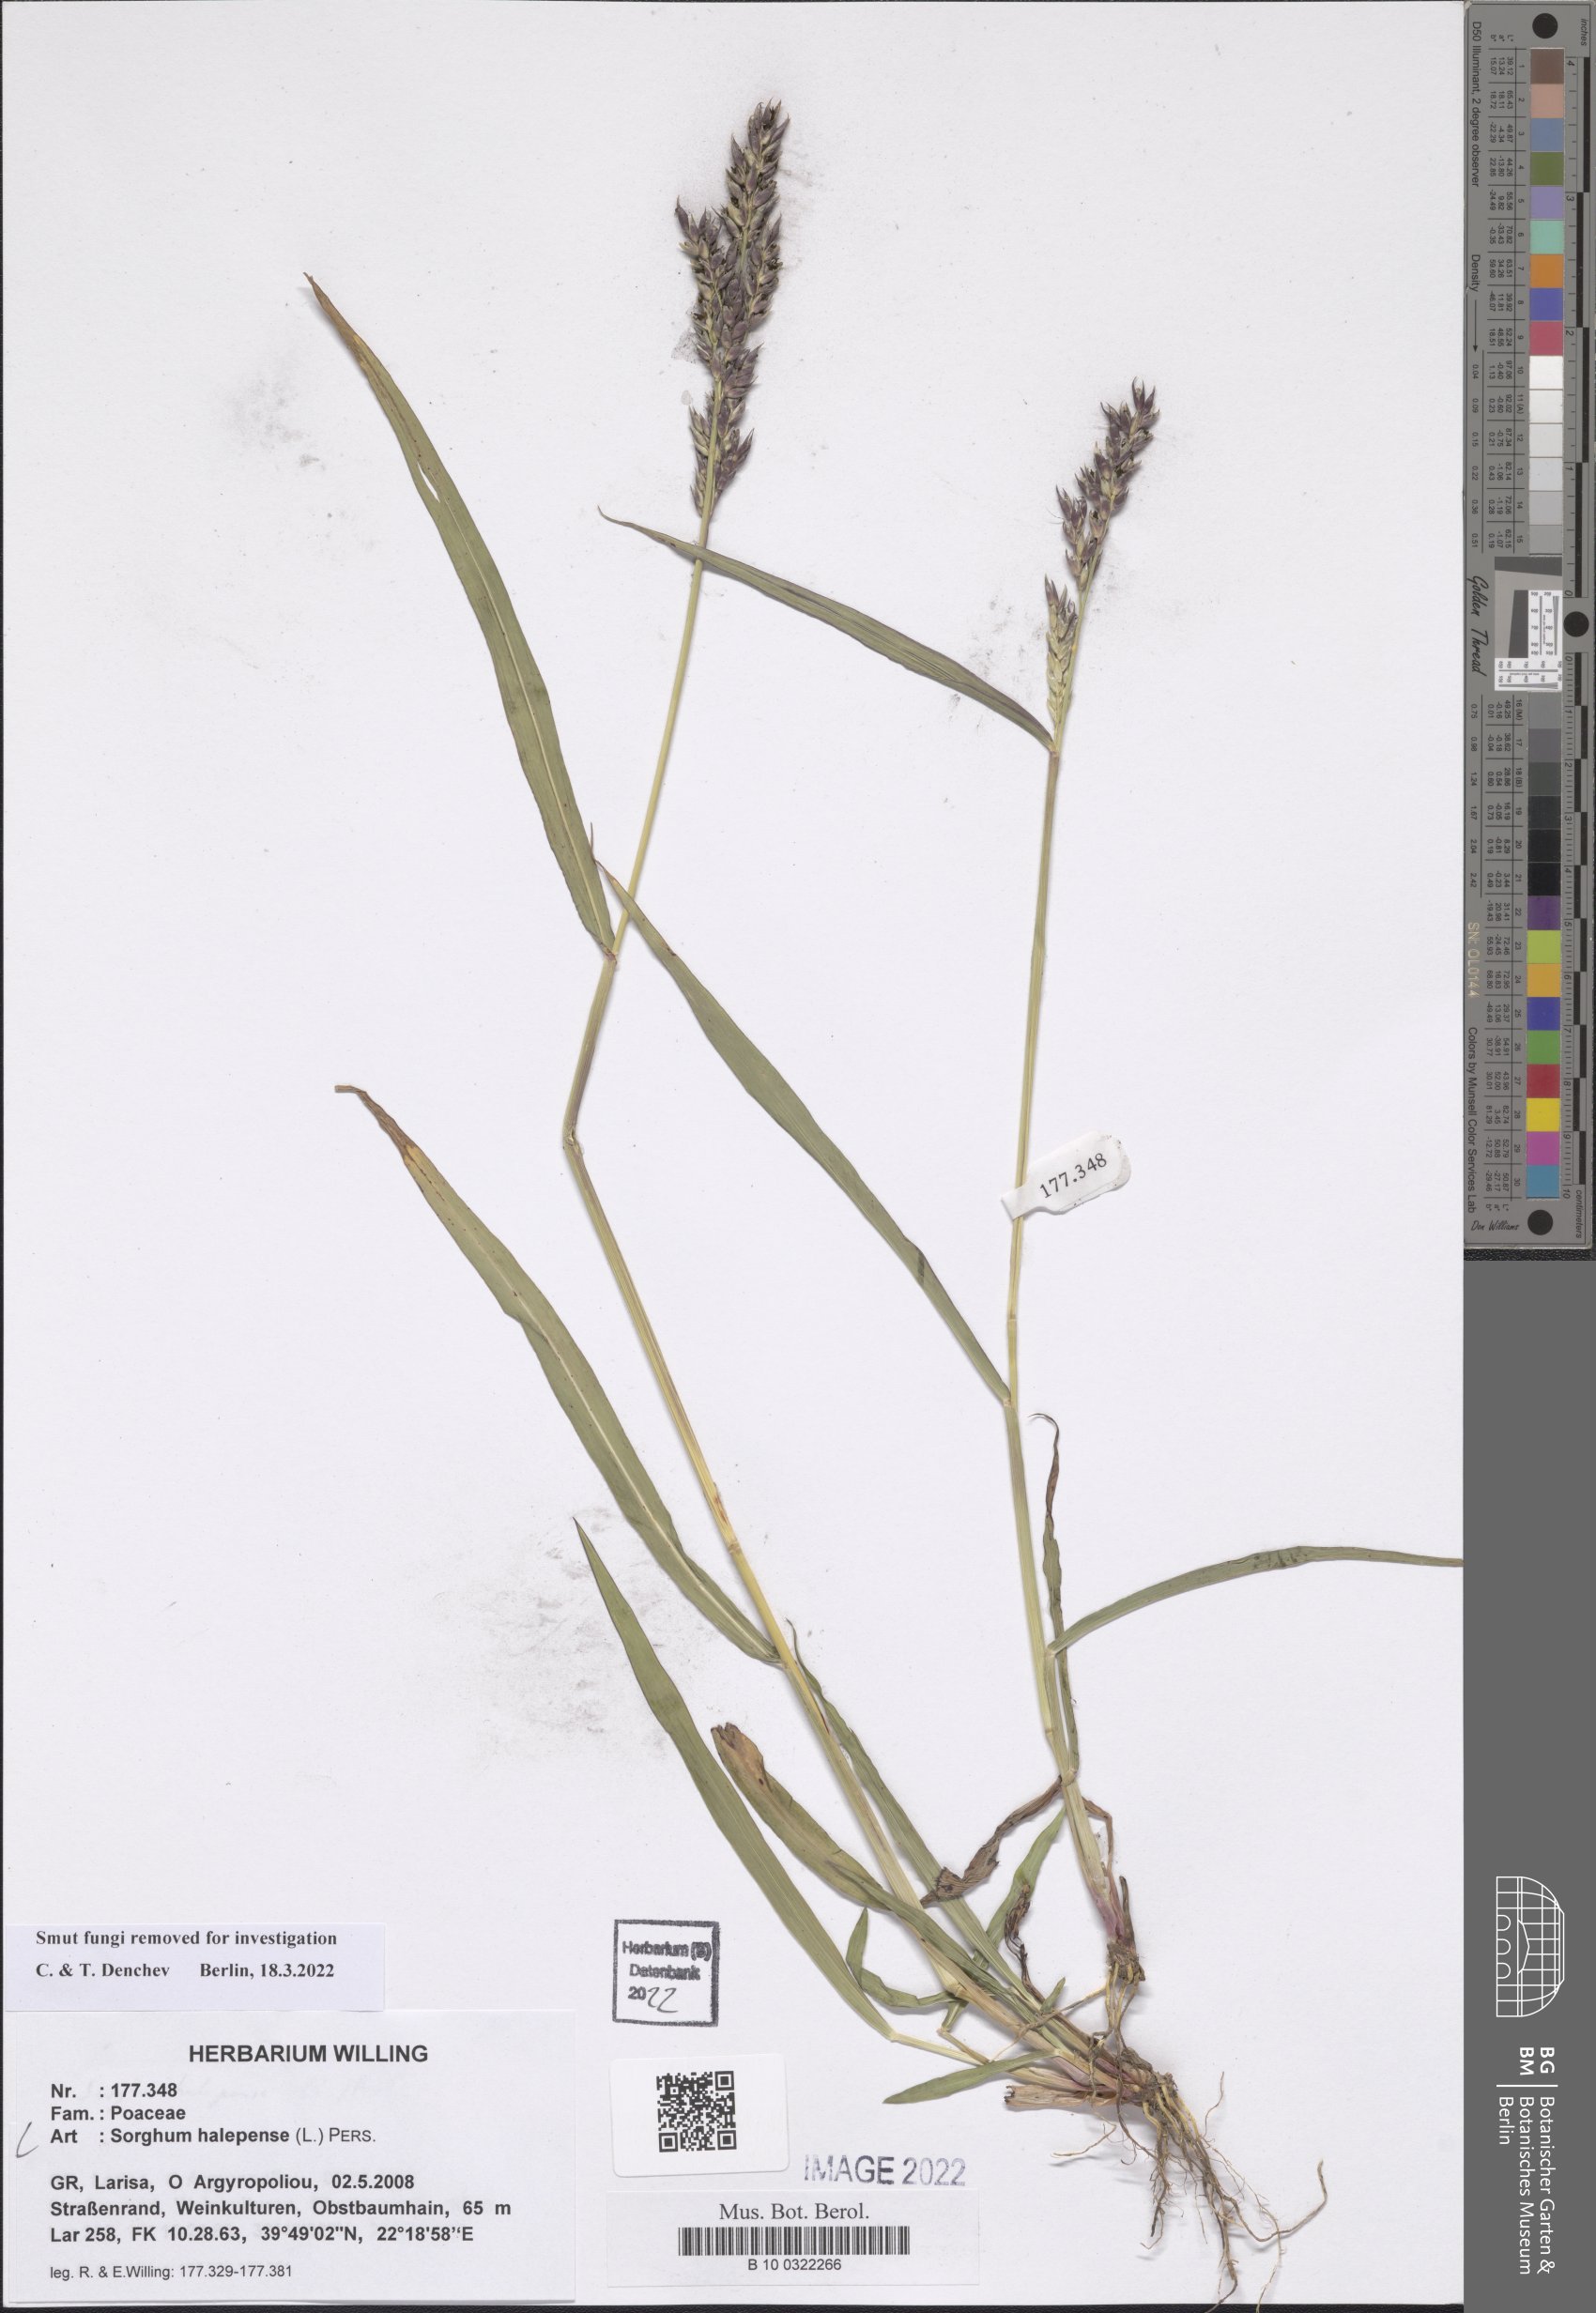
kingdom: Plantae
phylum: Tracheophyta
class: Liliopsida
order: Poales
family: Poaceae
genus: Sorghum
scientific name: Sorghum halepense
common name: Johnson-grass
